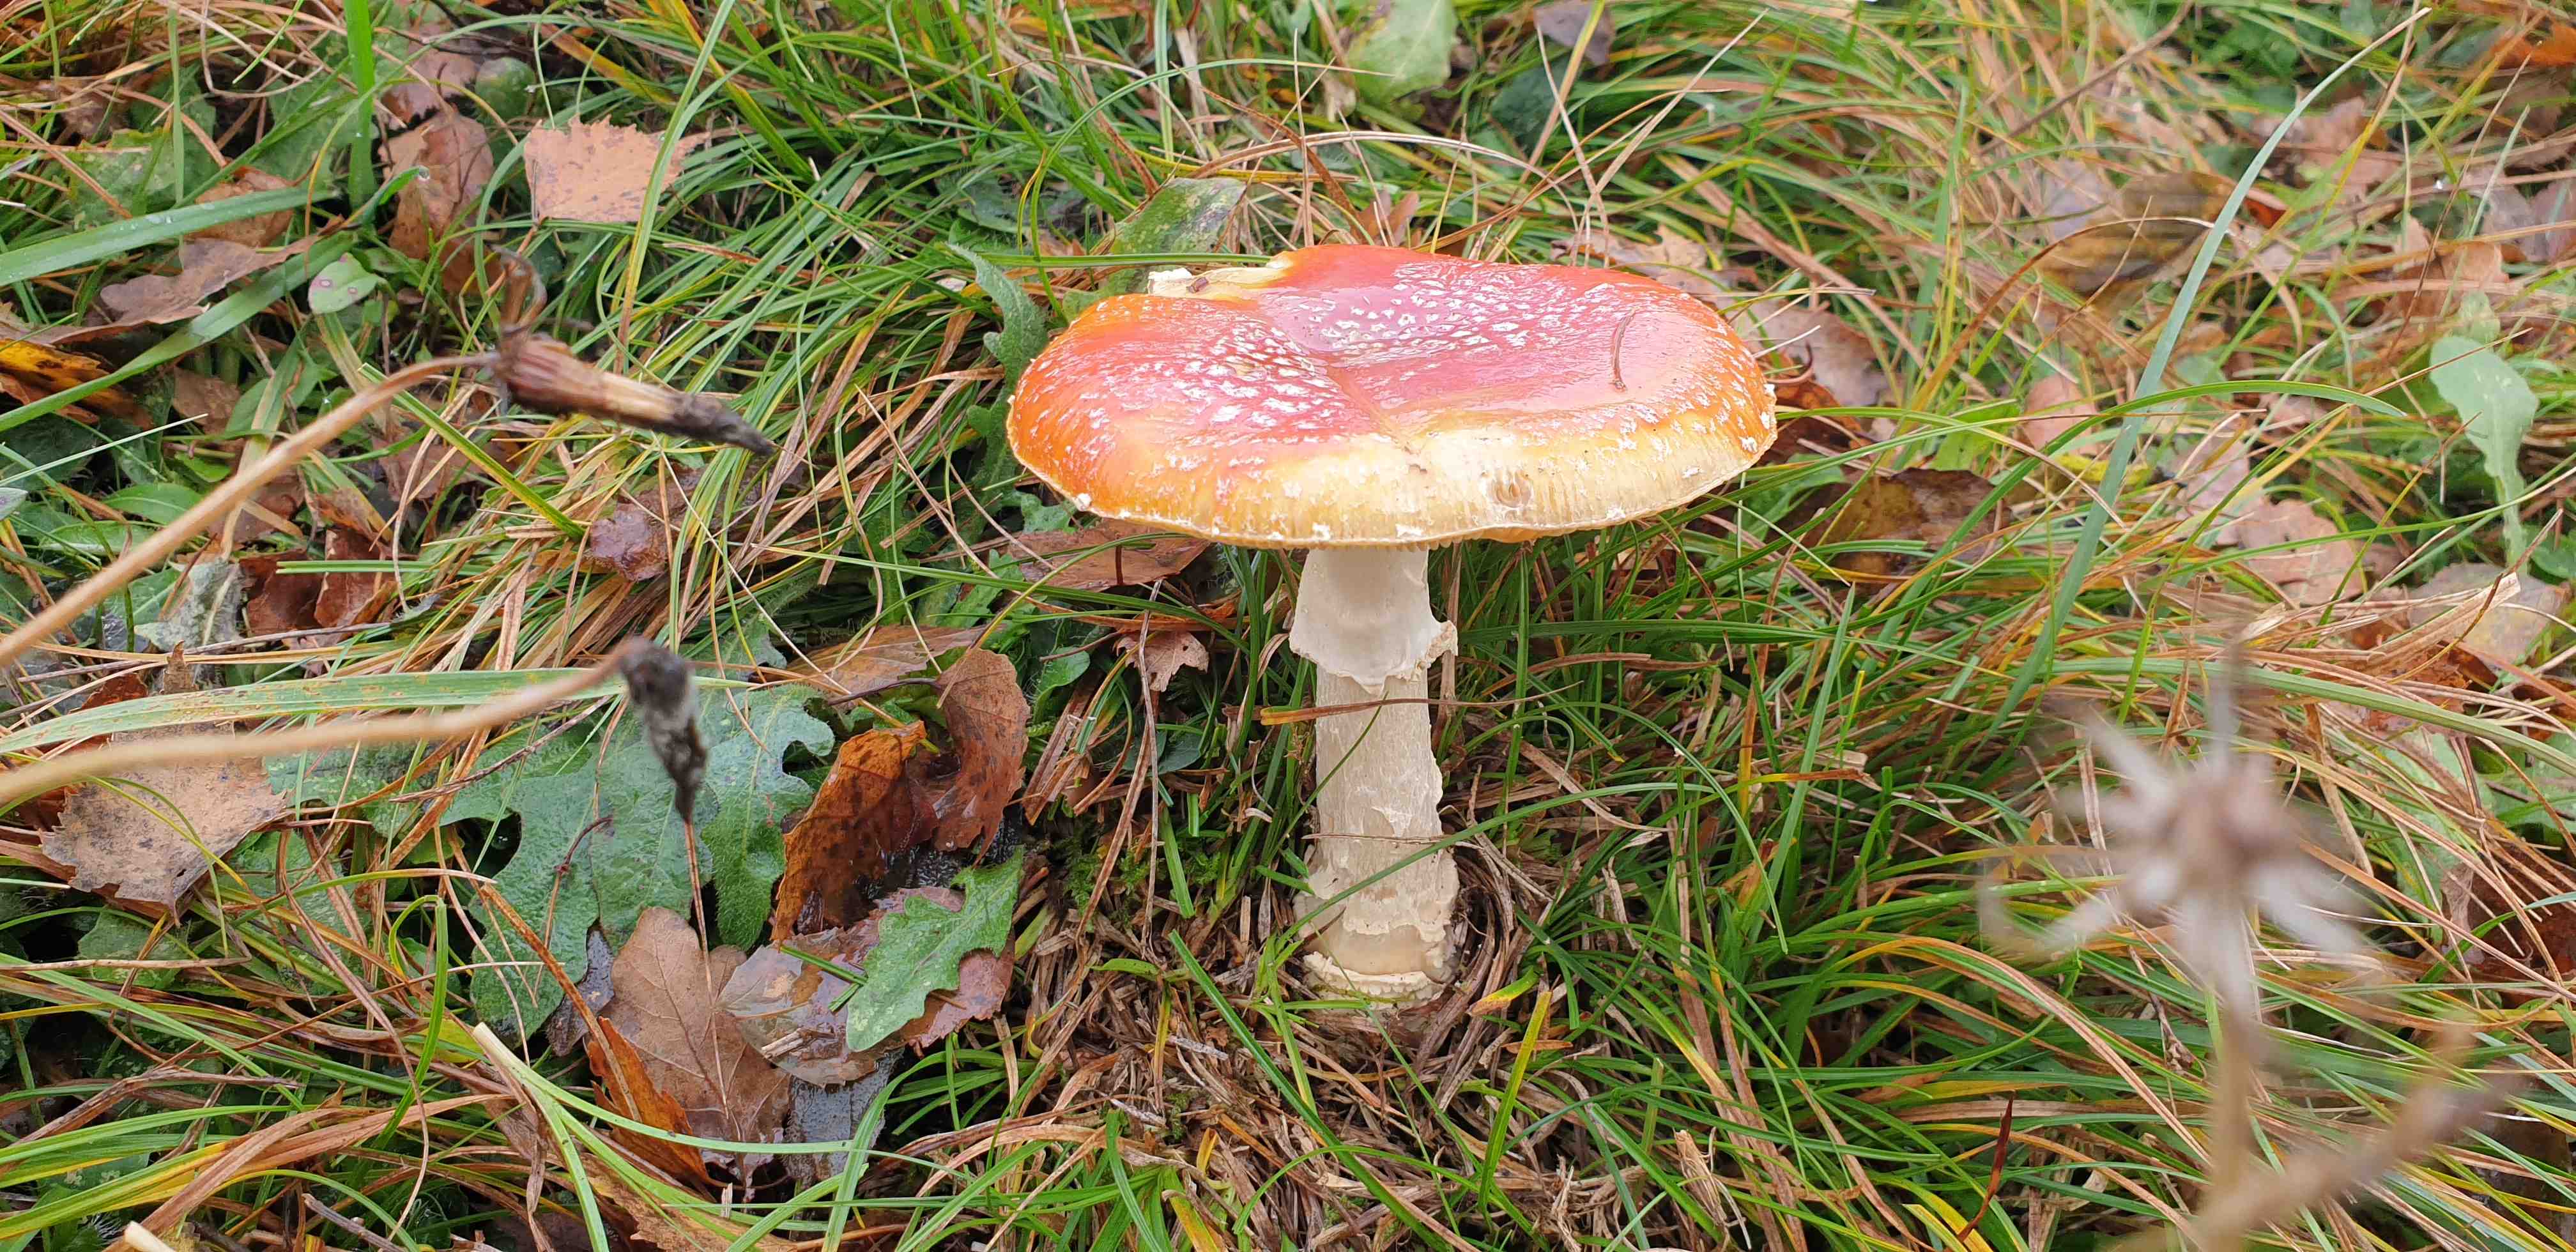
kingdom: Fungi
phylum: Basidiomycota
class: Agaricomycetes
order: Agaricales
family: Amanitaceae
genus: Amanita
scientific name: Amanita muscaria
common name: rød fluesvamp
